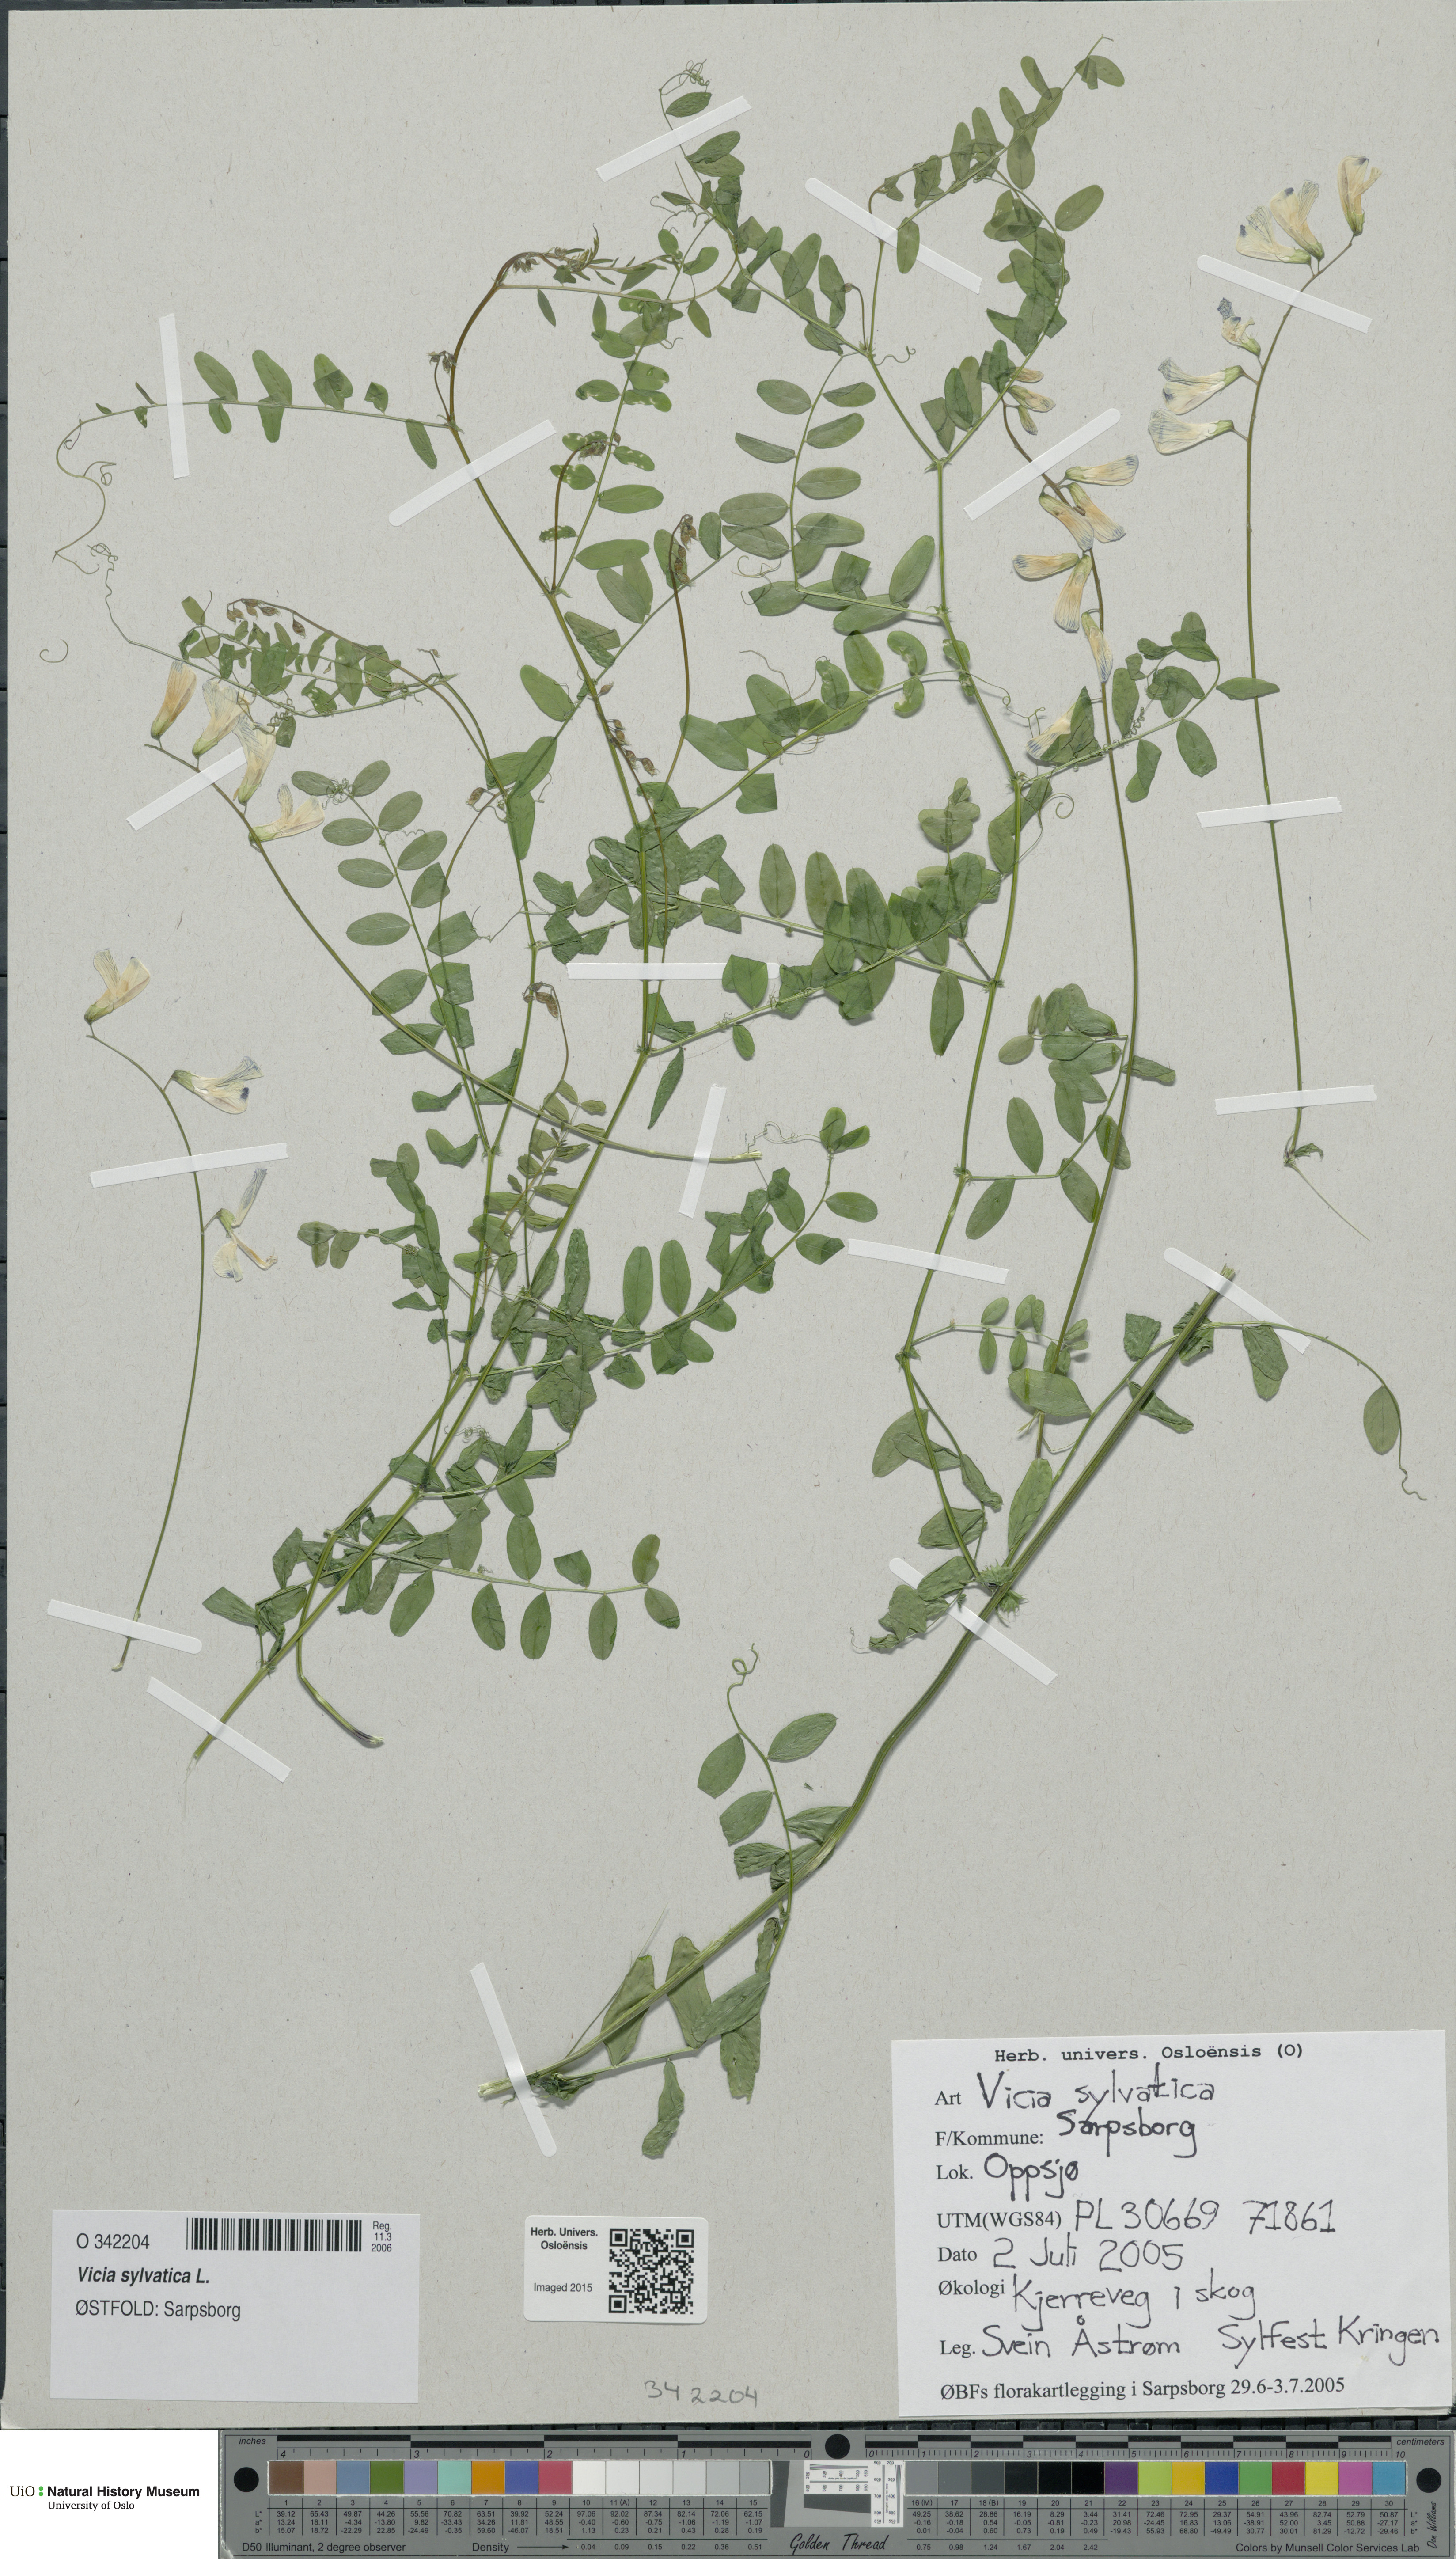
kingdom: Plantae
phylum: Tracheophyta
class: Magnoliopsida
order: Fabales
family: Fabaceae
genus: Vicia
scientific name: Vicia sylvatica
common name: Wood vetch
